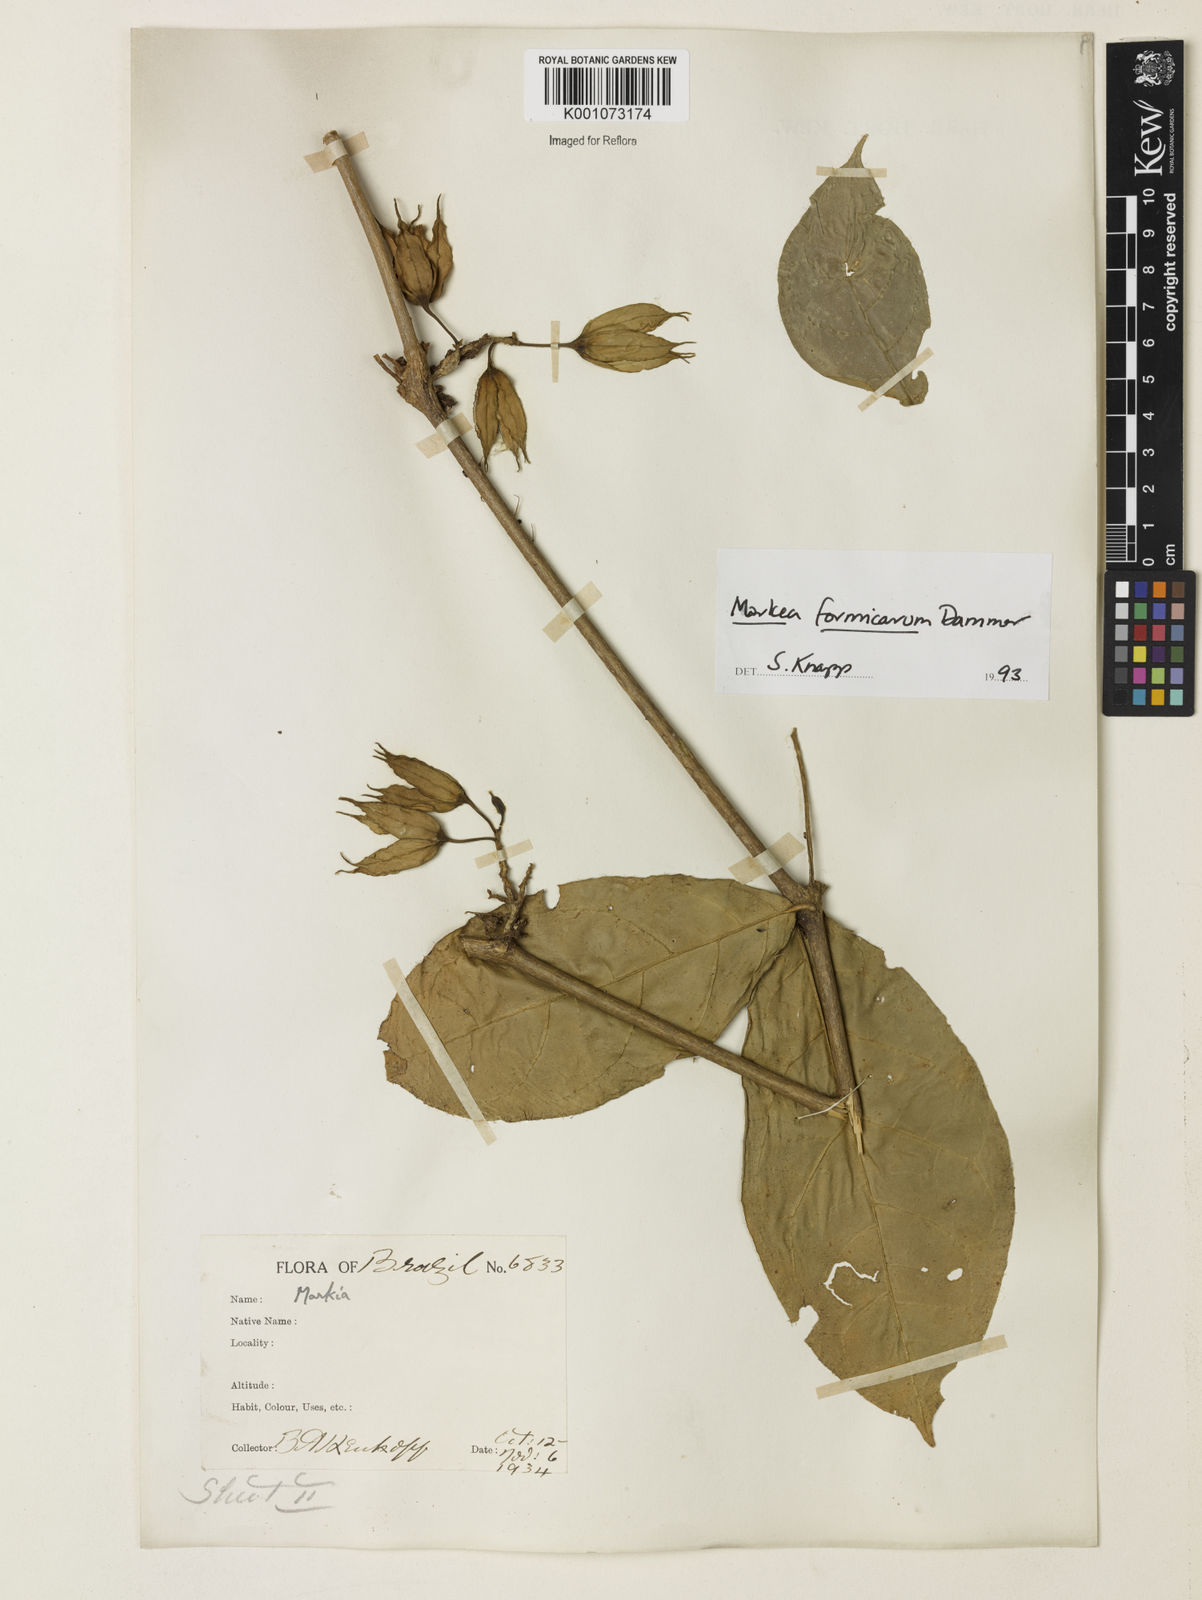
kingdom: Plantae
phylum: Tracheophyta
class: Magnoliopsida
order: Solanales
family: Solanaceae
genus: Markea
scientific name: Markea formicarum
